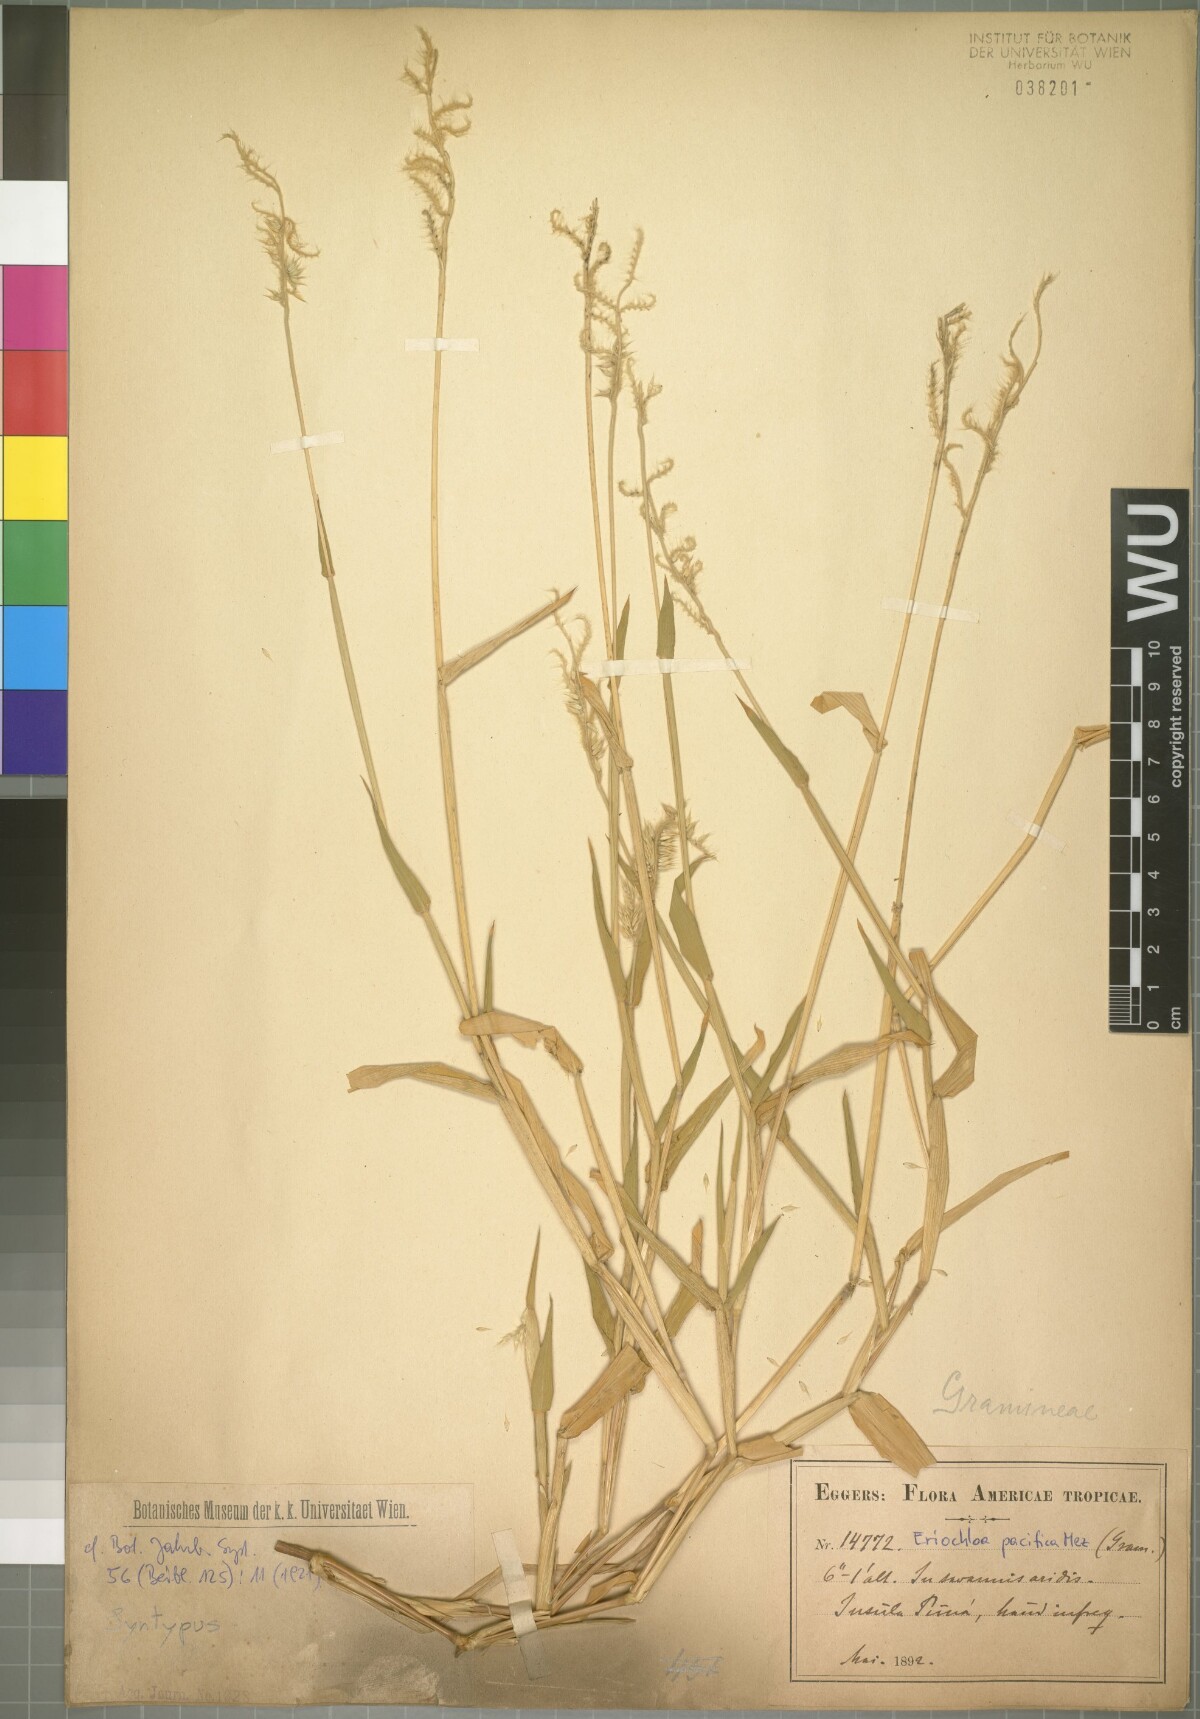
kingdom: Plantae
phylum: Tracheophyta
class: Liliopsida
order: Poales
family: Poaceae
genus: Eriochloa
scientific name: Eriochloa pacifica
